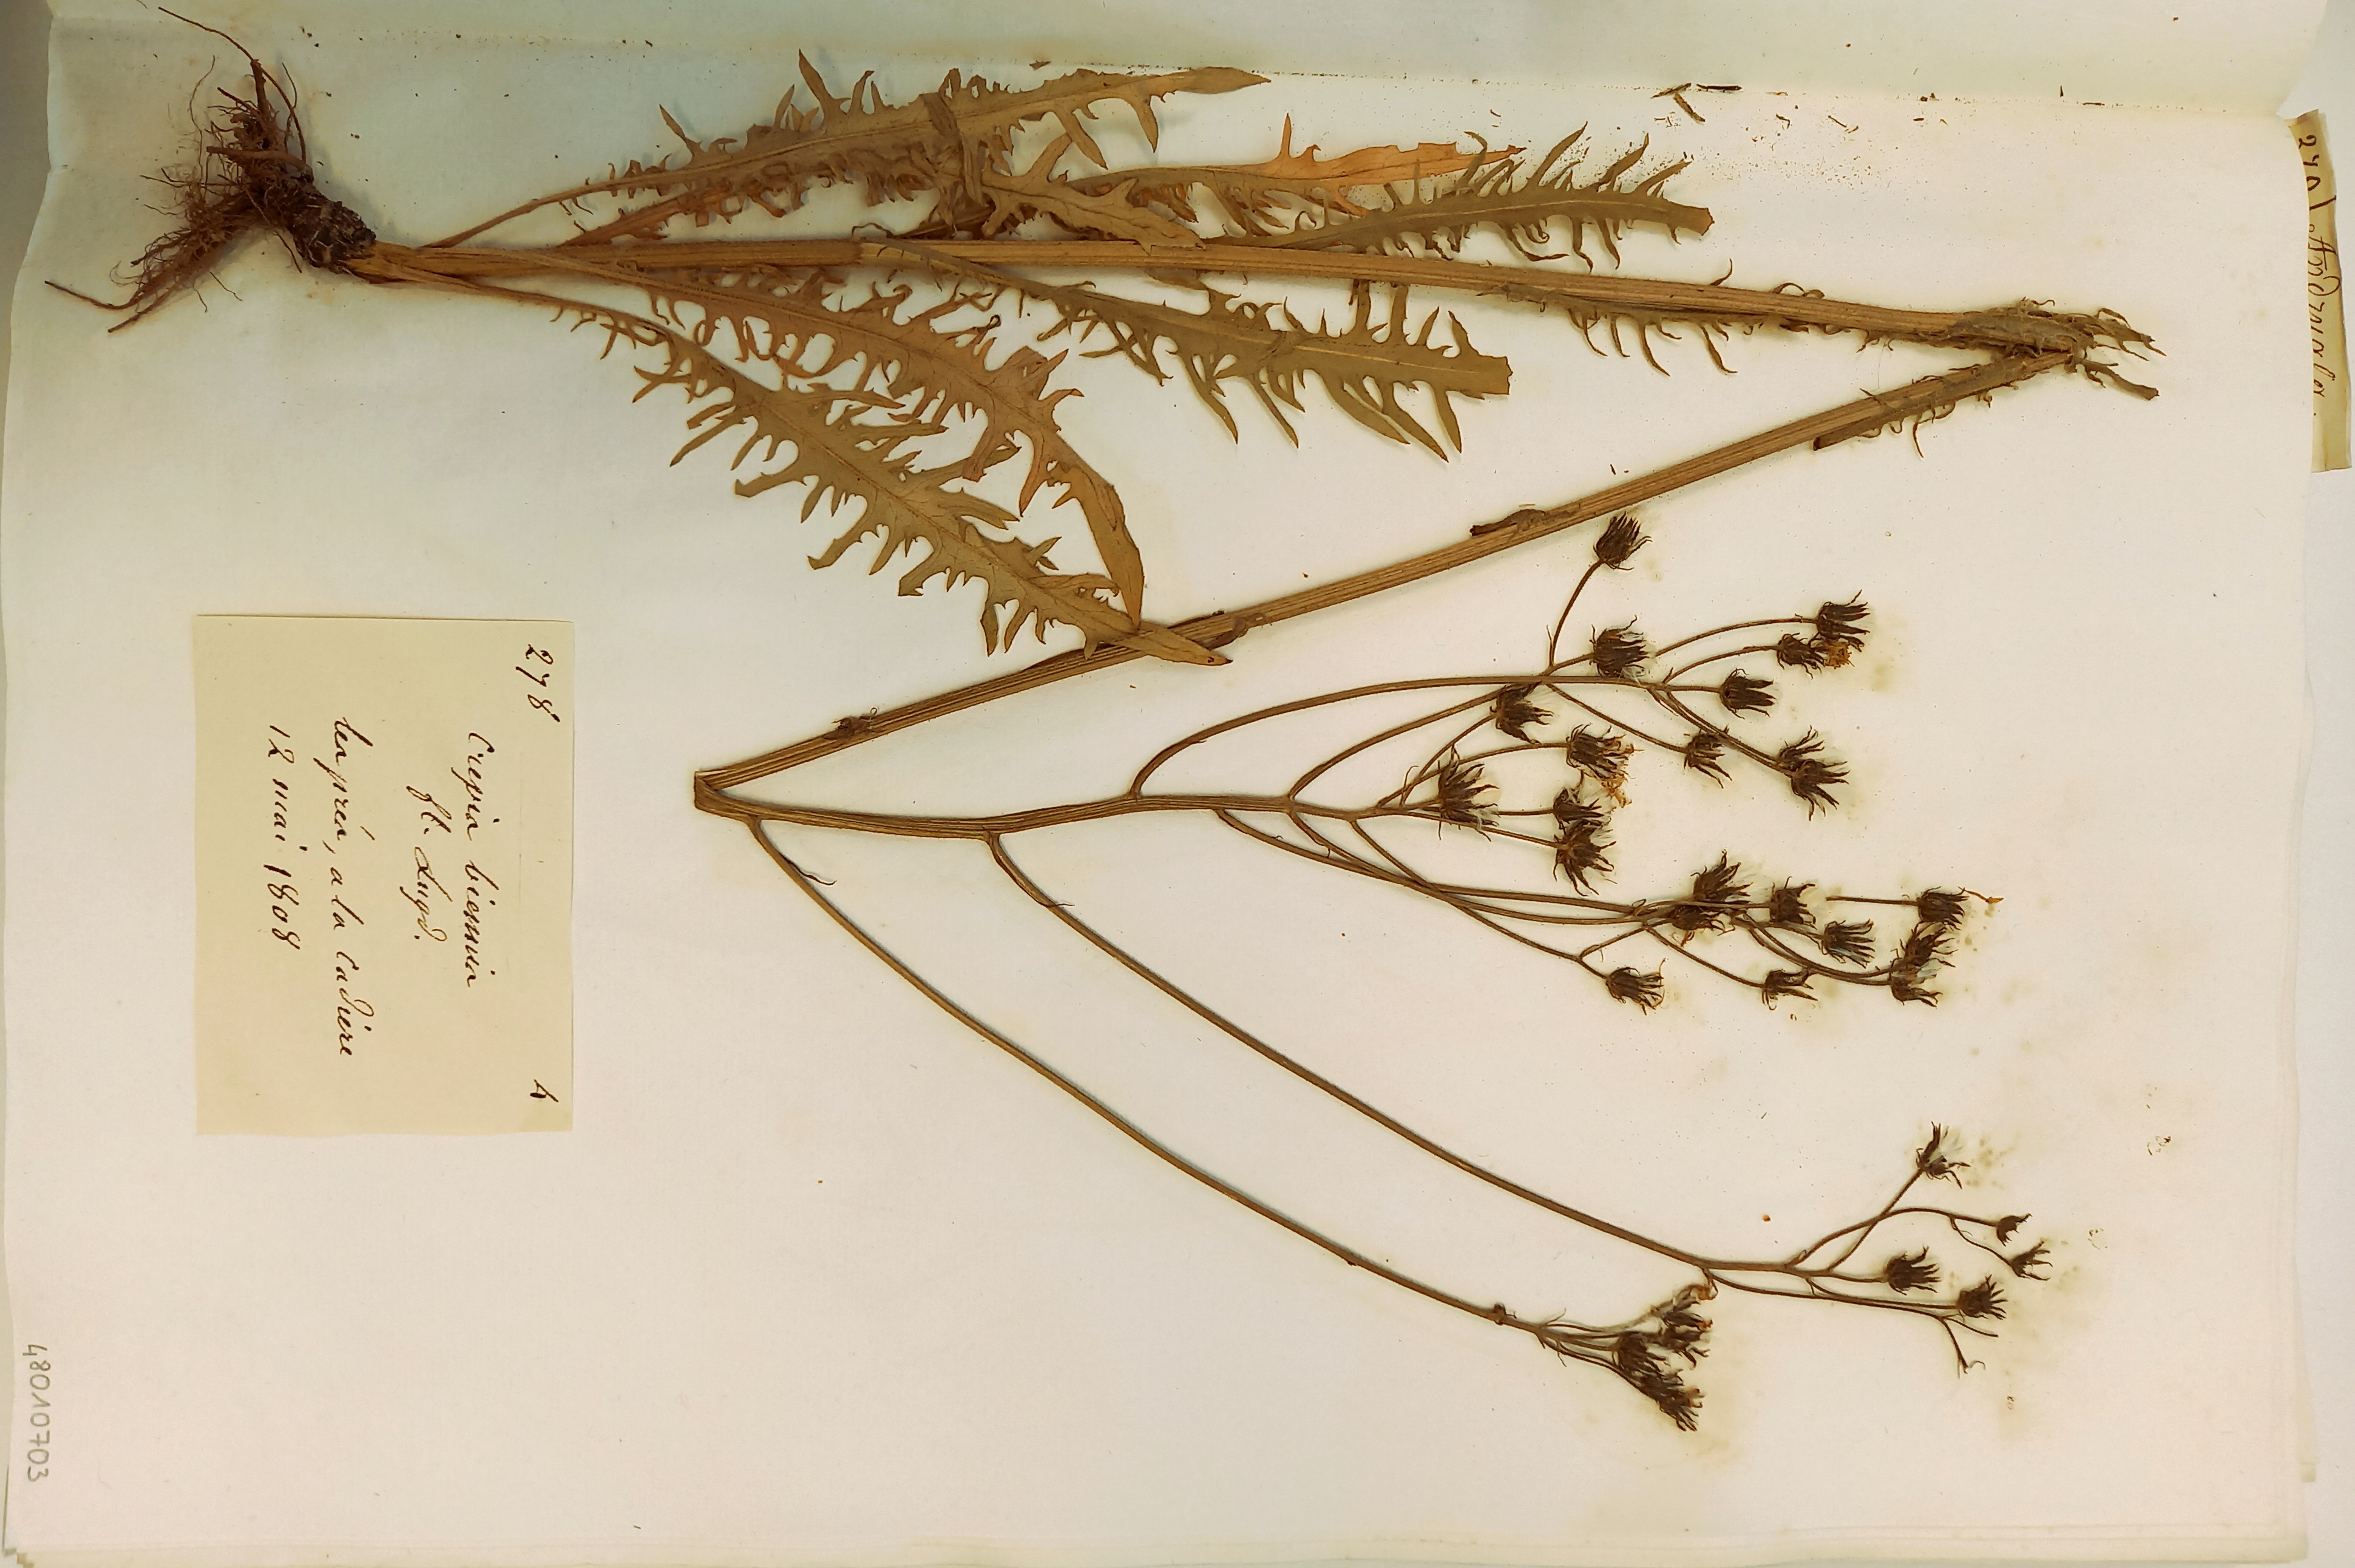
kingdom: Plantae
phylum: Tracheophyta
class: Magnoliopsida
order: Asterales
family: Asteraceae
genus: Crepis
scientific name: Crepis biennis
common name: Rough hawk's-beard
